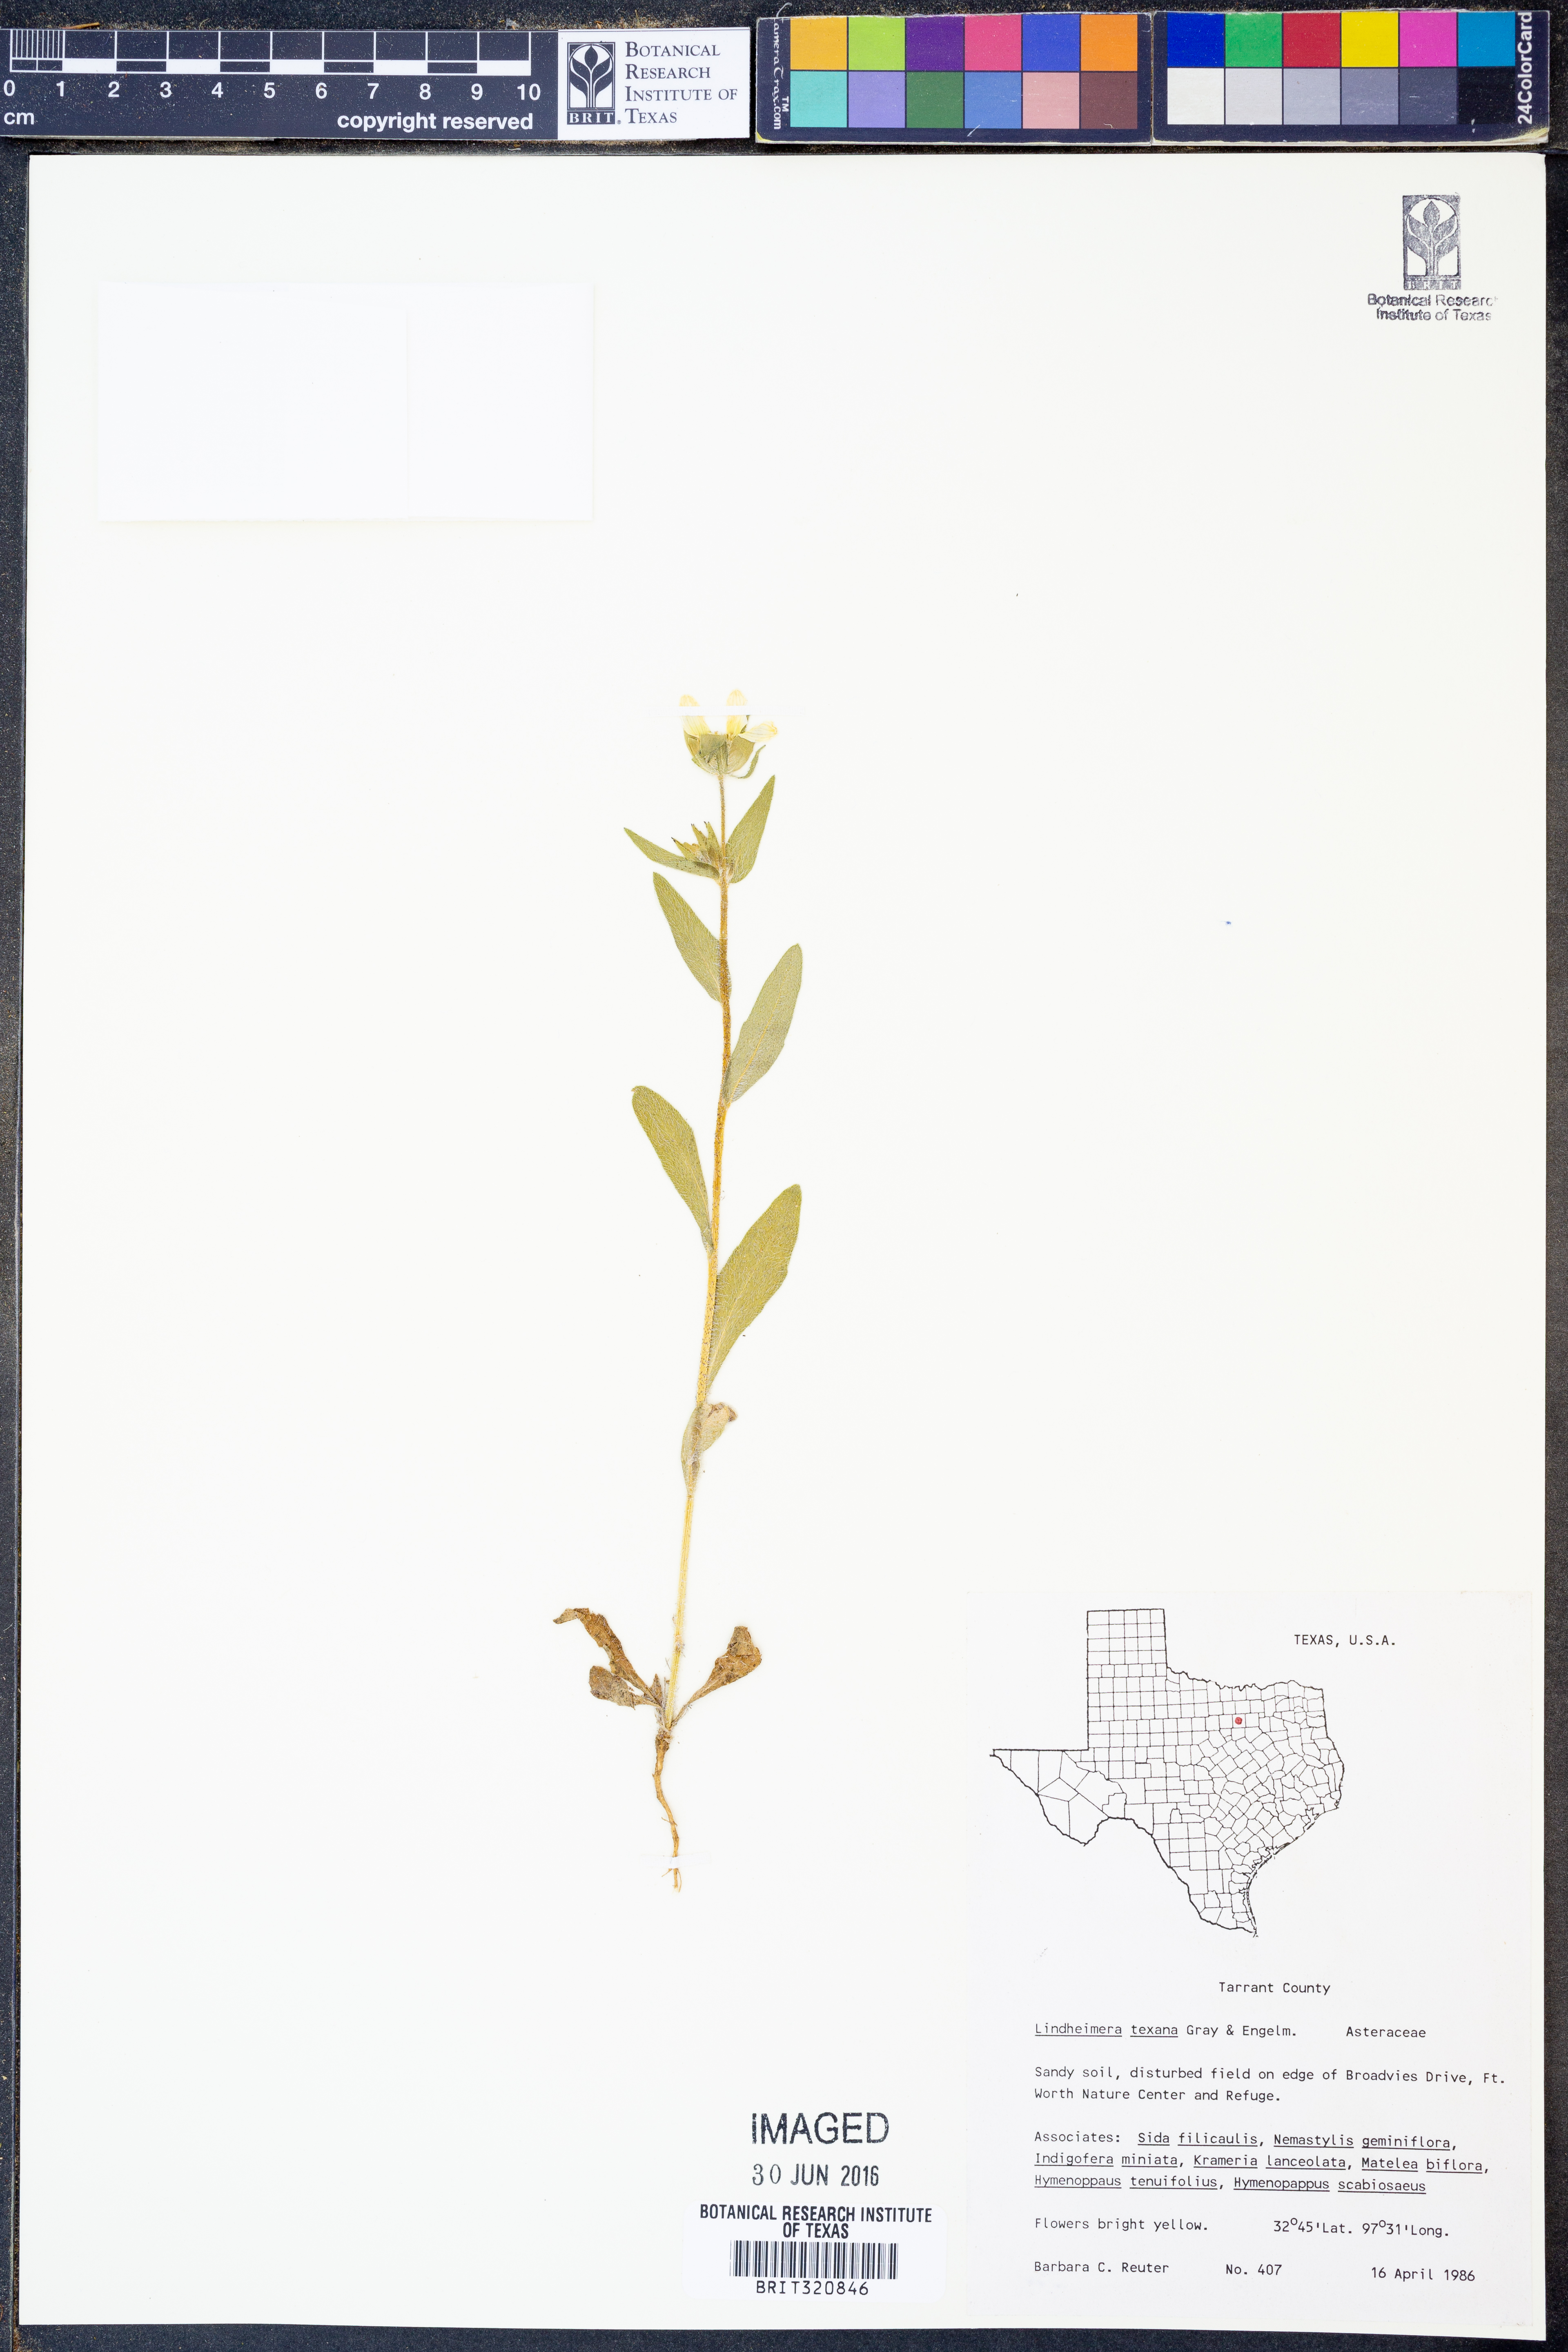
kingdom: Plantae
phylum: Tracheophyta
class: Magnoliopsida
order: Asterales
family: Asteraceae
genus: Lindheimera
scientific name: Lindheimera texana
